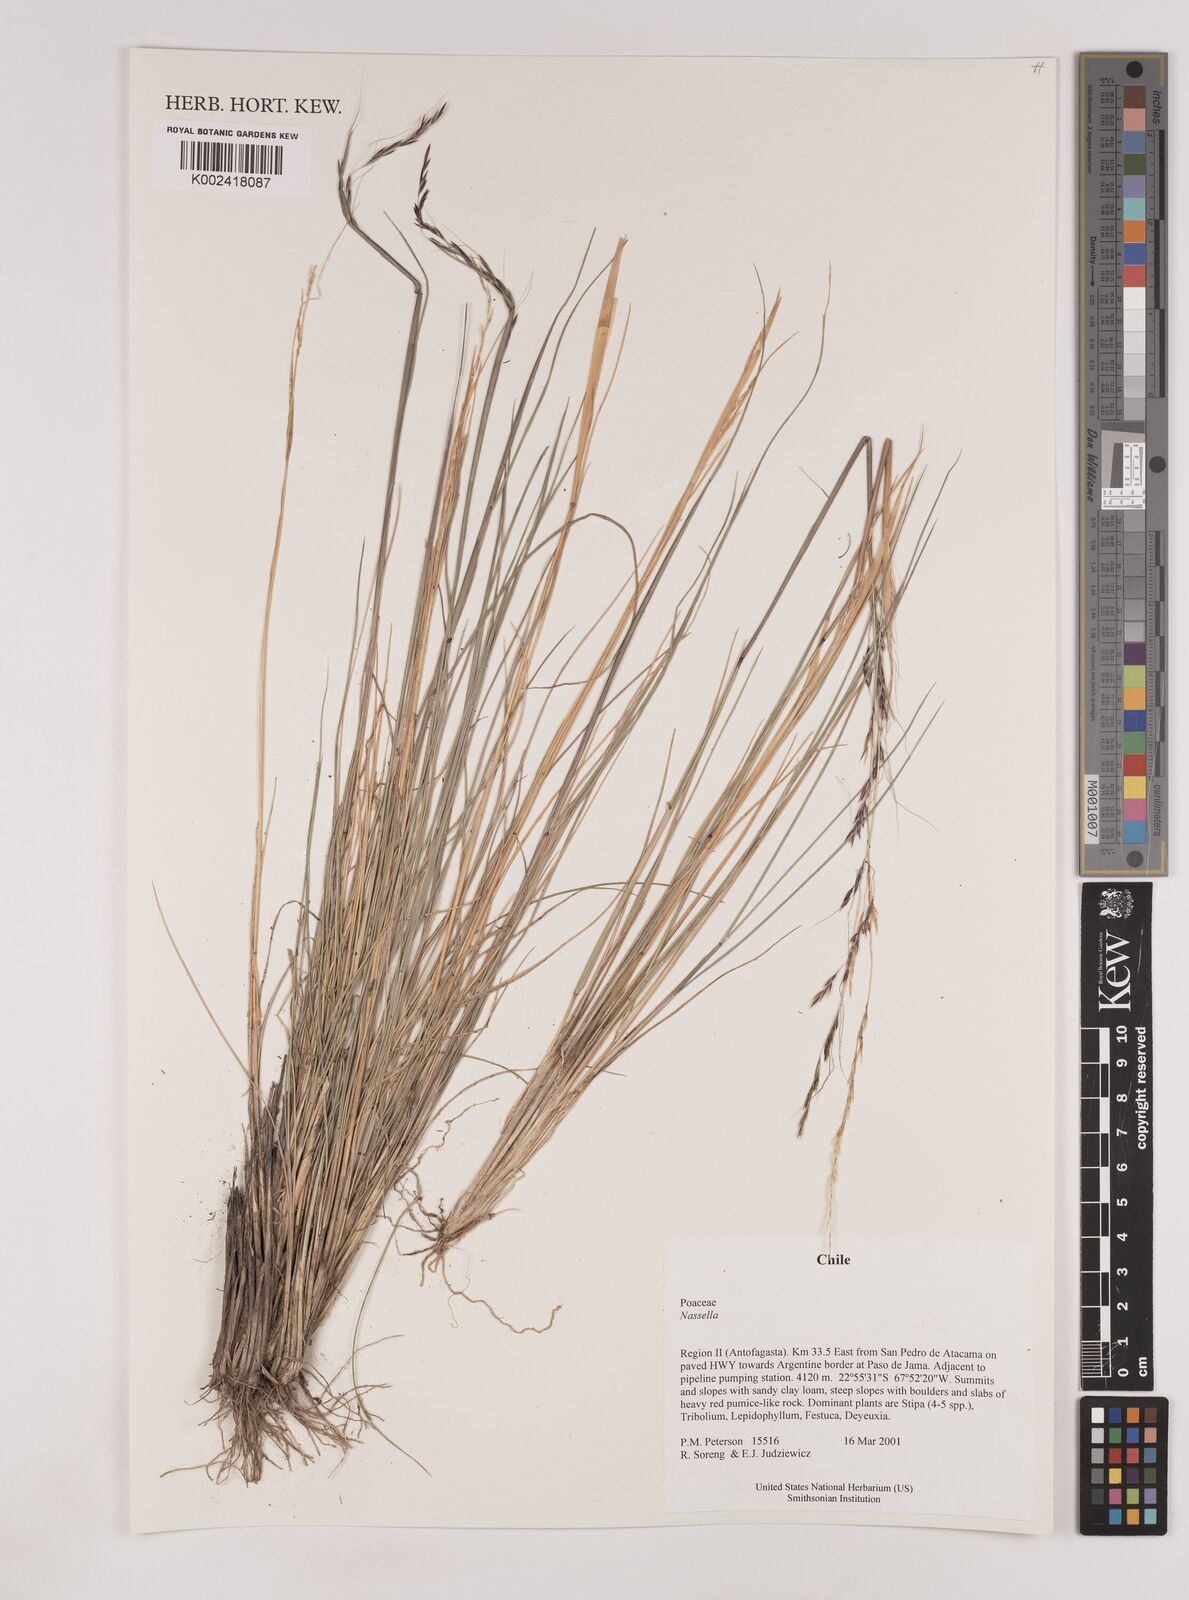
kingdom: Plantae
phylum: Tracheophyta
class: Liliopsida
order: Poales
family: Poaceae
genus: Nassella
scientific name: Nassella
